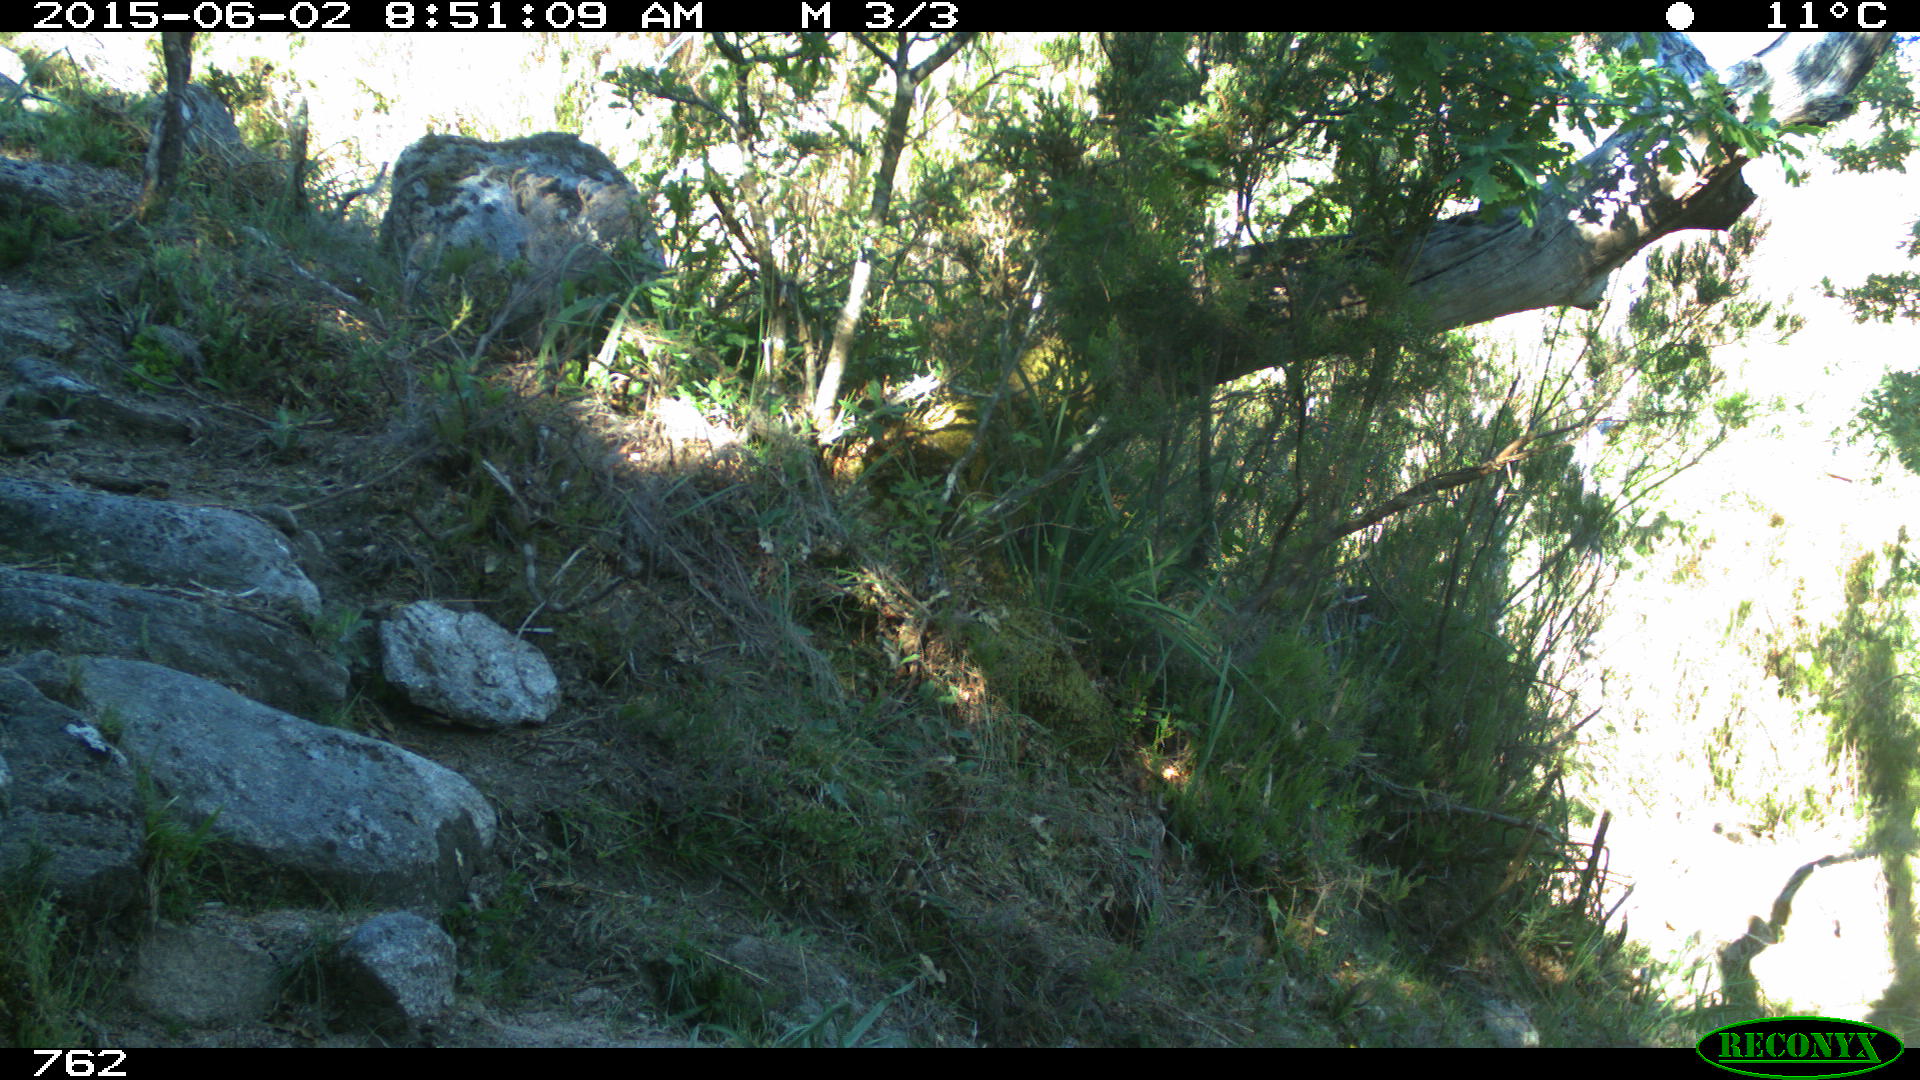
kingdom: Animalia
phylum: Chordata
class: Mammalia
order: Artiodactyla
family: Bovidae
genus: Bos
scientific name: Bos taurus
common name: Domesticated cattle
